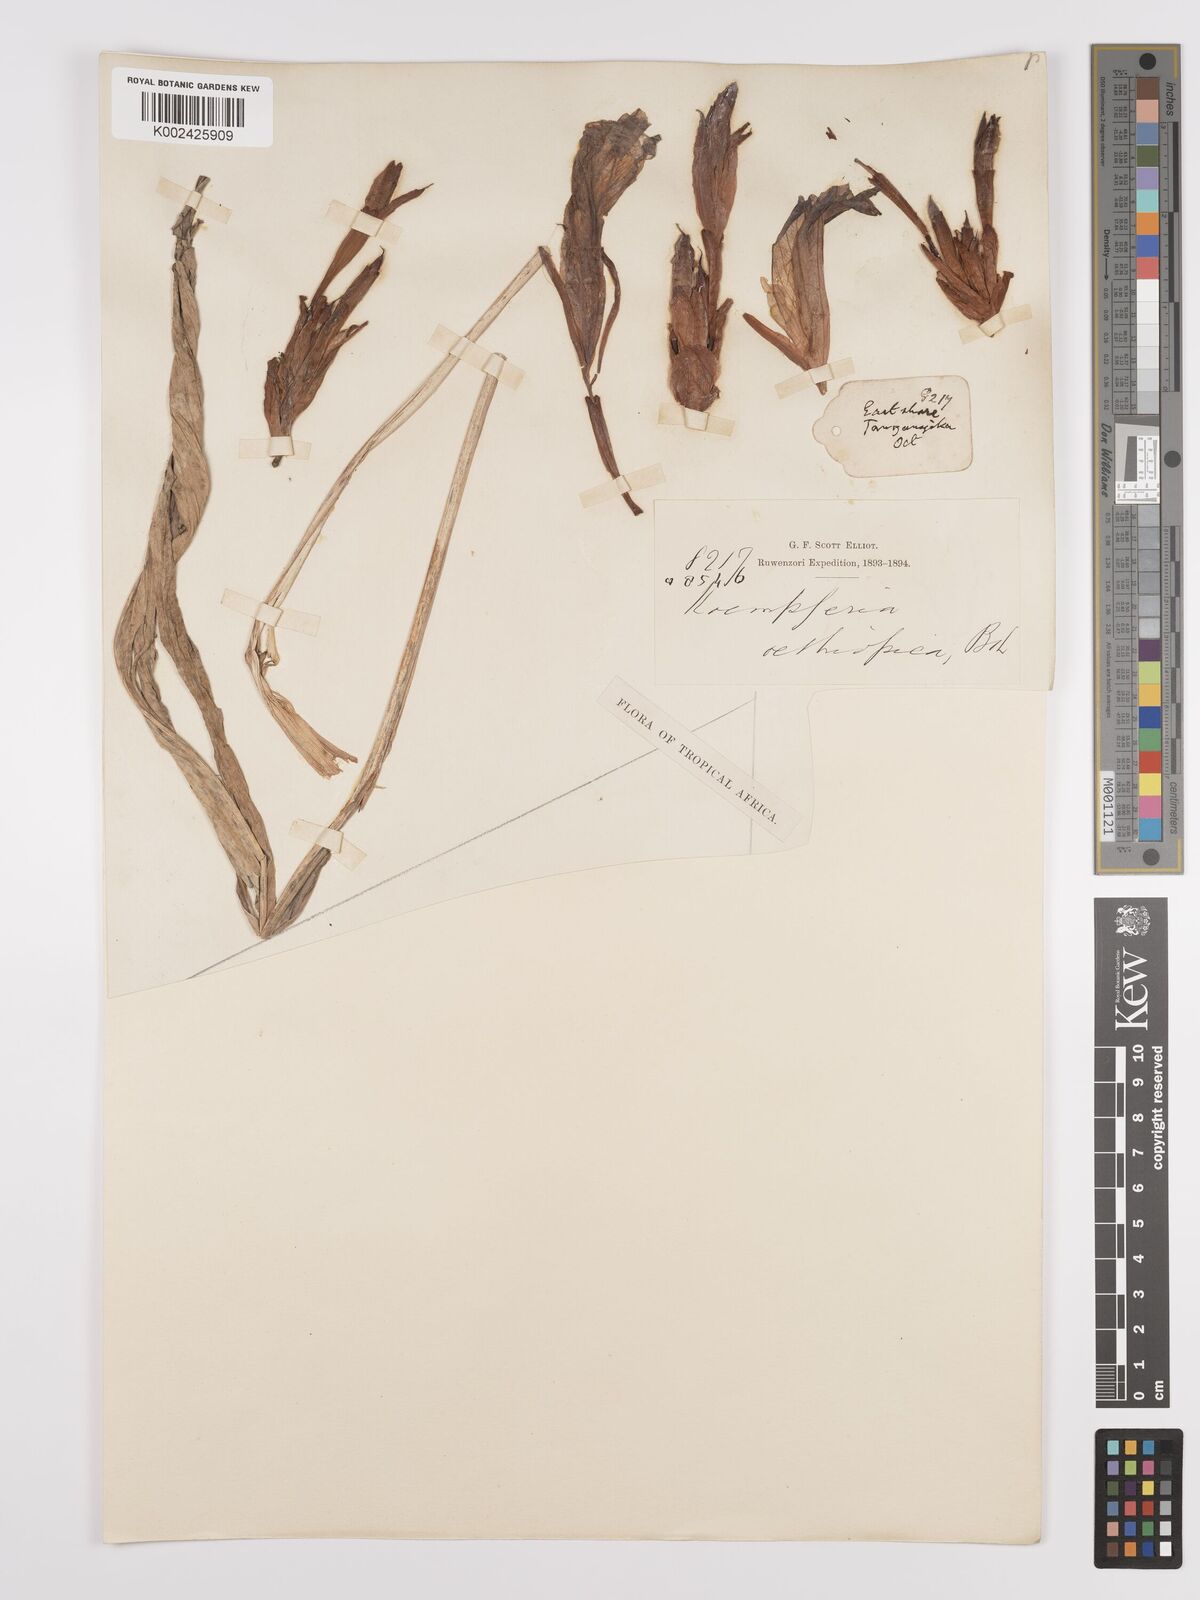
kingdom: Plantae
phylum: Tracheophyta
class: Liliopsida
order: Zingiberales
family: Zingiberaceae
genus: Siphonochilus
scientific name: Siphonochilus aethiopicus
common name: African-ginger
